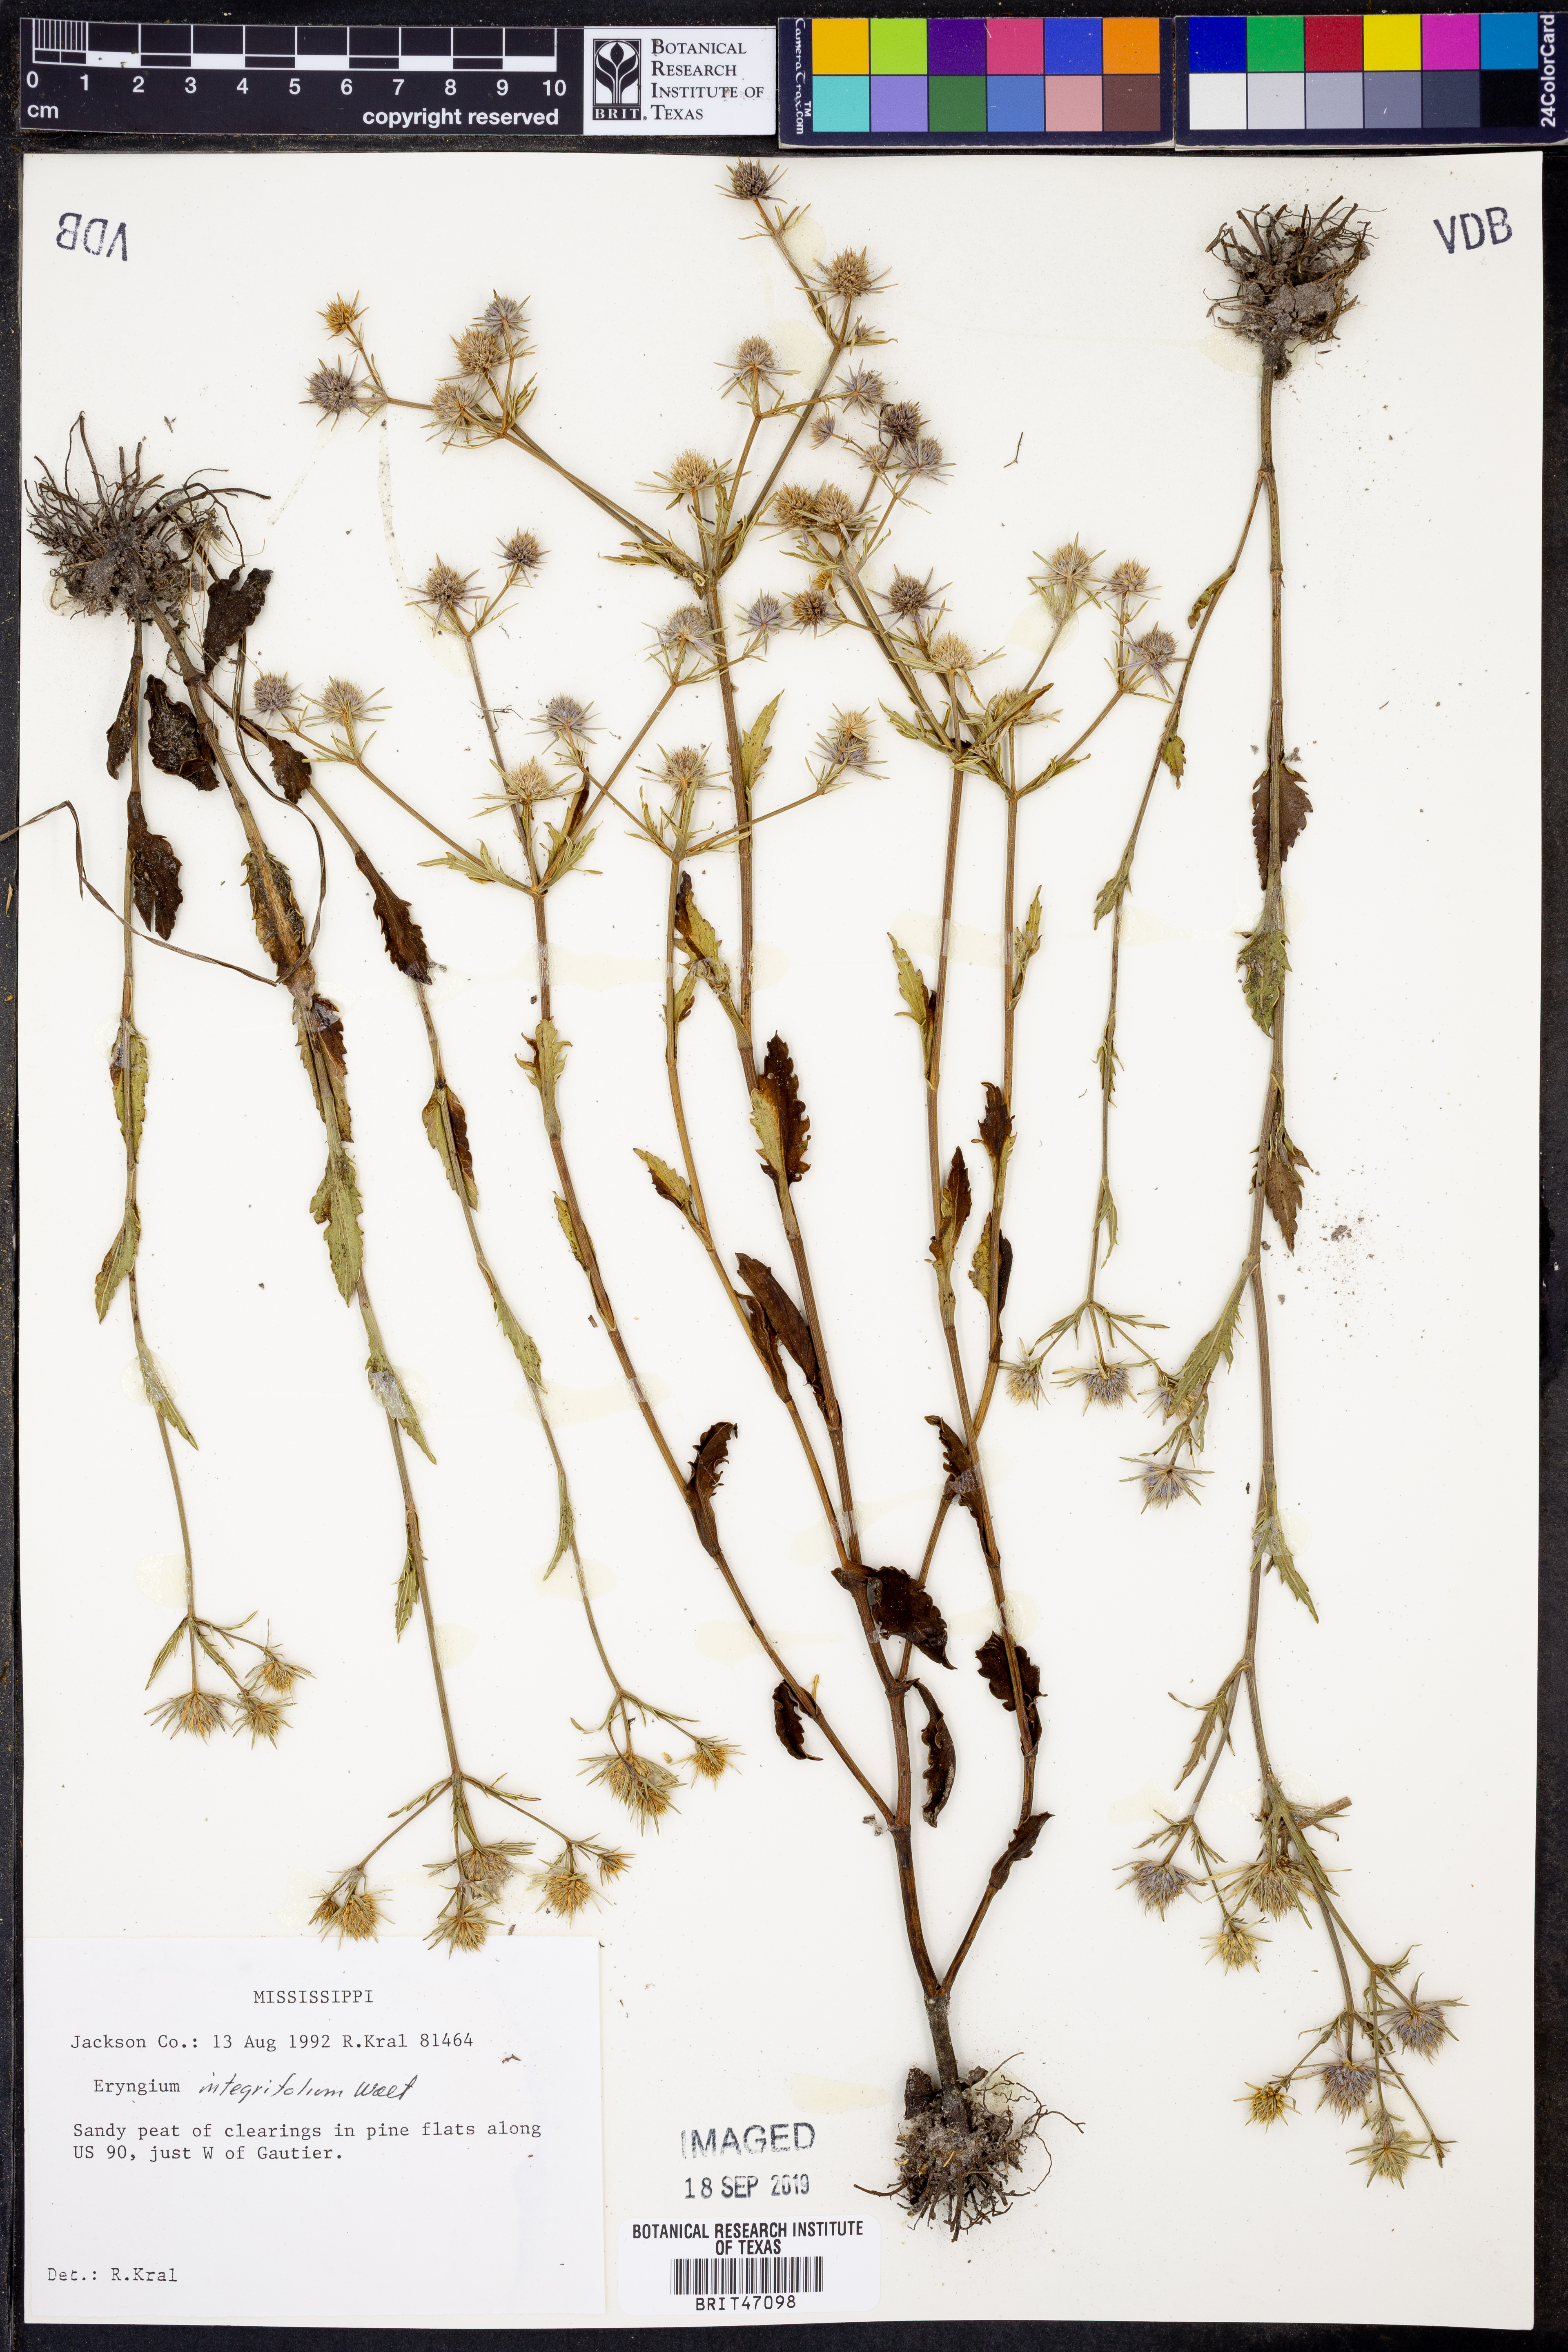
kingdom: Plantae
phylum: Tracheophyta
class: Magnoliopsida
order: Apiales
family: Apiaceae
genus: Eryngium
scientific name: Eryngium integrifolium
